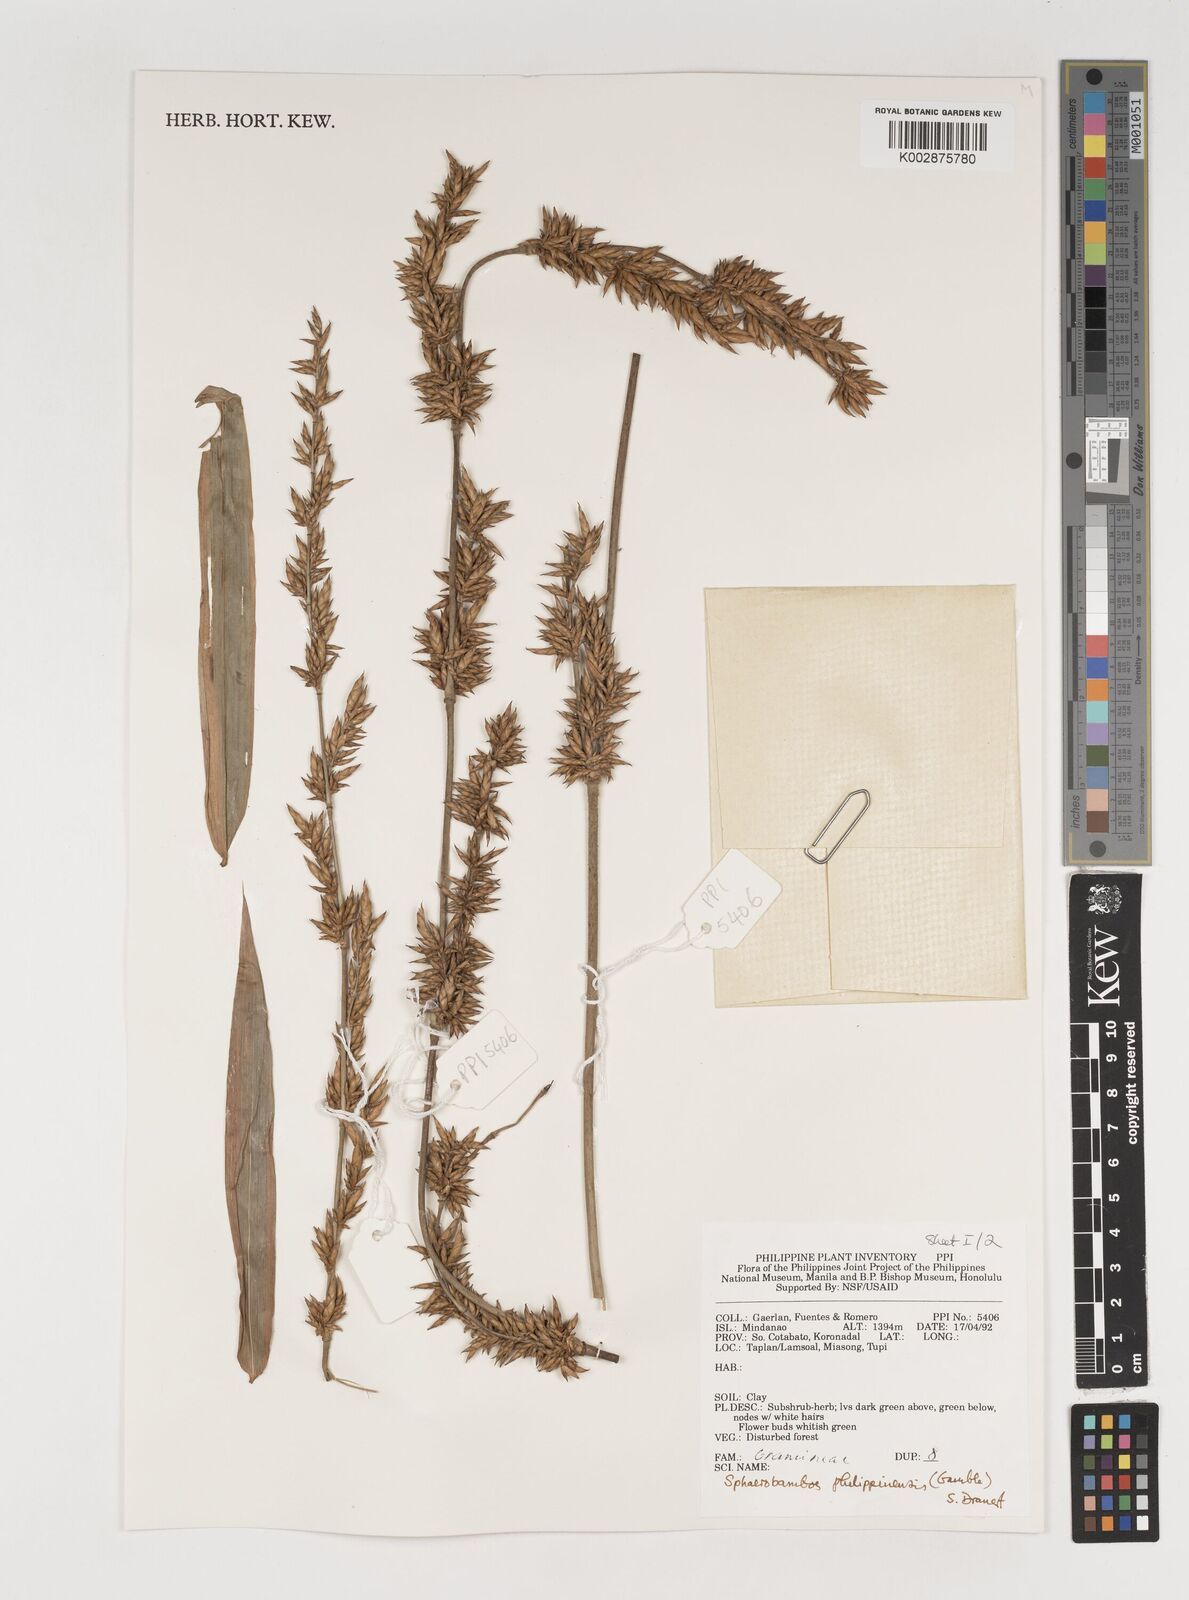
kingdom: Plantae
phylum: Tracheophyta
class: Liliopsida
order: Poales
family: Poaceae
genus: Sphaerobambos
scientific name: Sphaerobambos philippinensis
